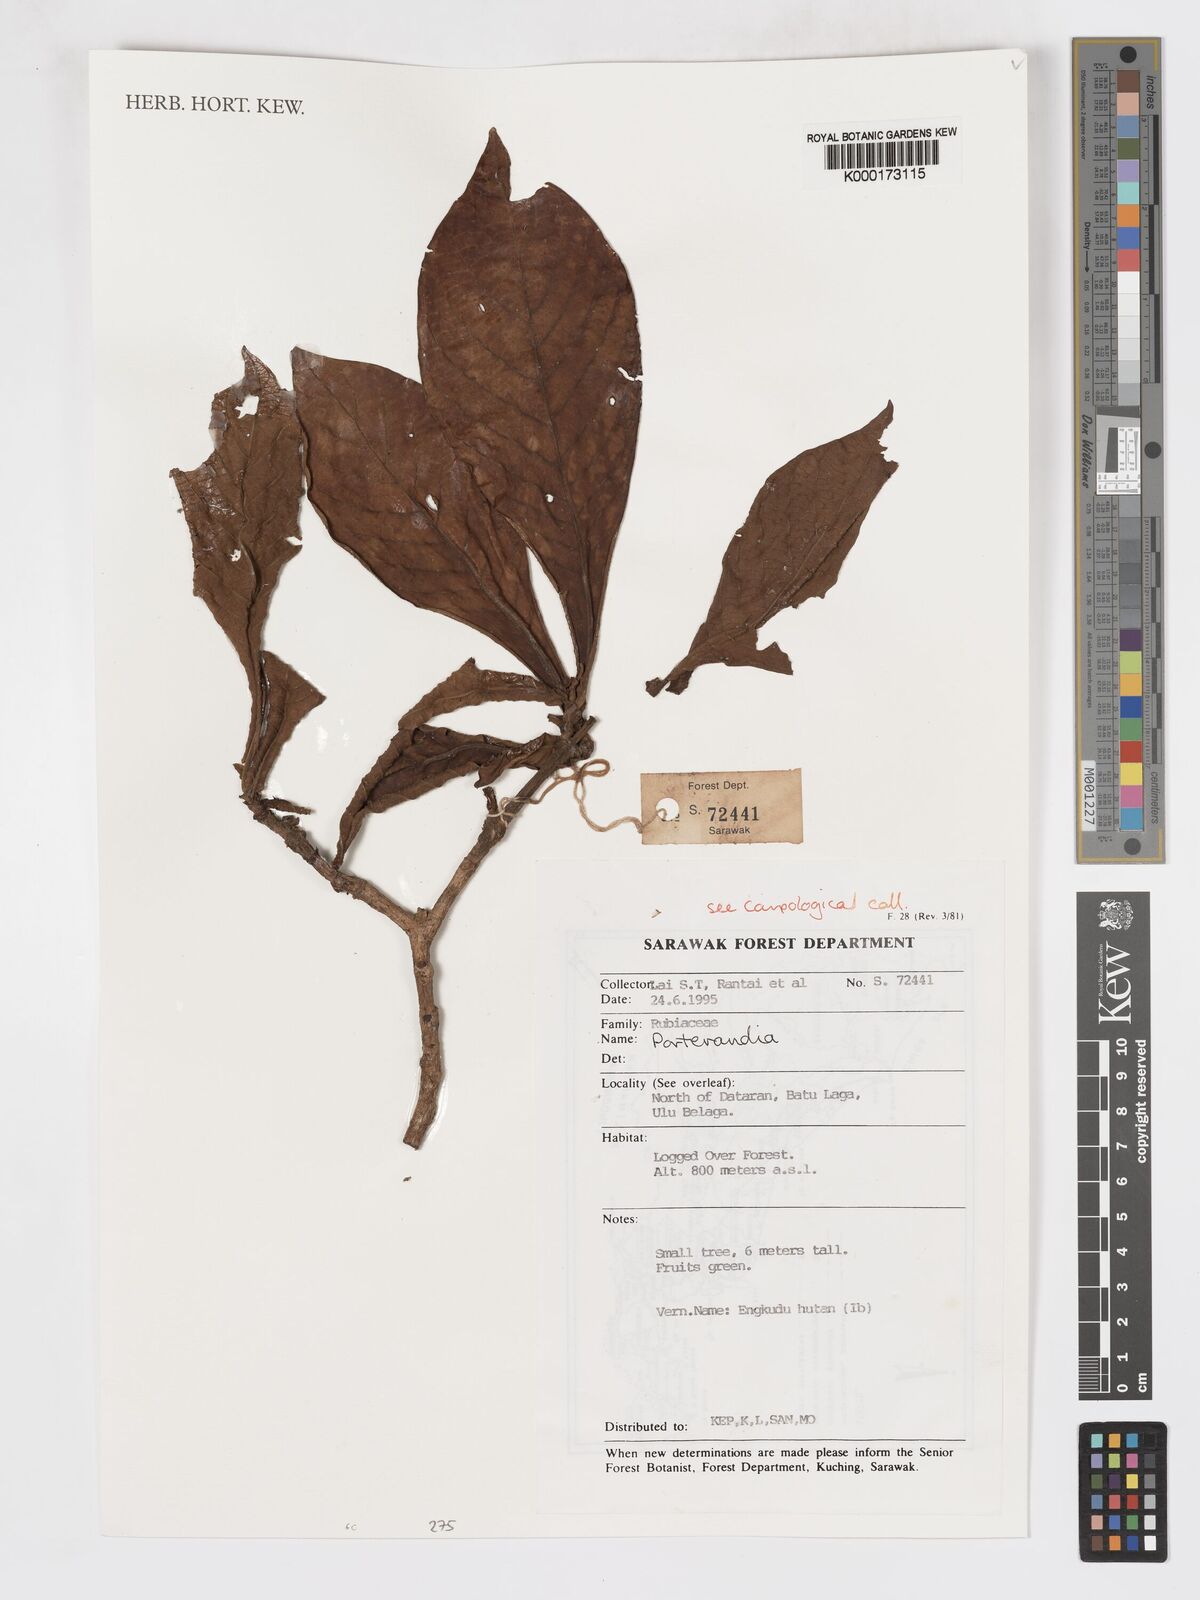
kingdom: Plantae
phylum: Tracheophyta
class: Magnoliopsida
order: Gentianales
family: Rubiaceae
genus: Porterandia
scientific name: Porterandia
